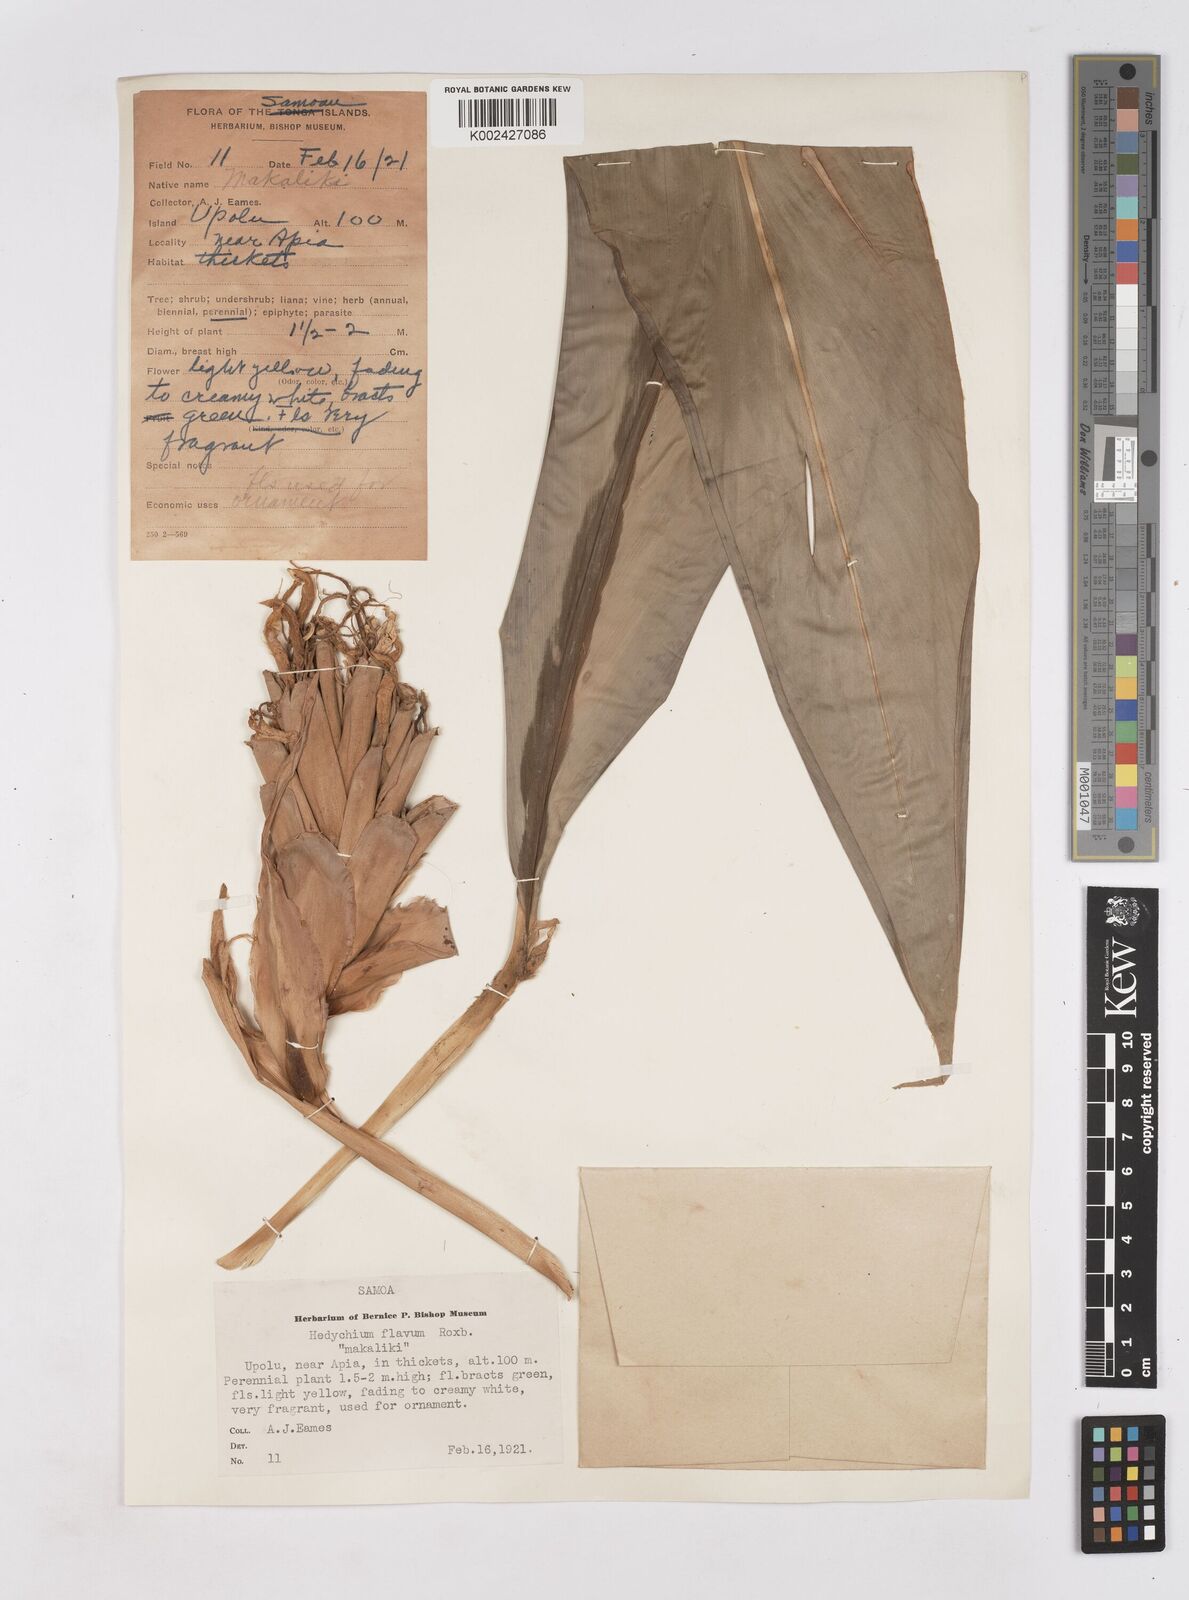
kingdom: Plantae
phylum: Tracheophyta
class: Liliopsida
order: Zingiberales
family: Zingiberaceae
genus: Hedychium
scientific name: Hedychium coronarium
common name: White garland-lily
